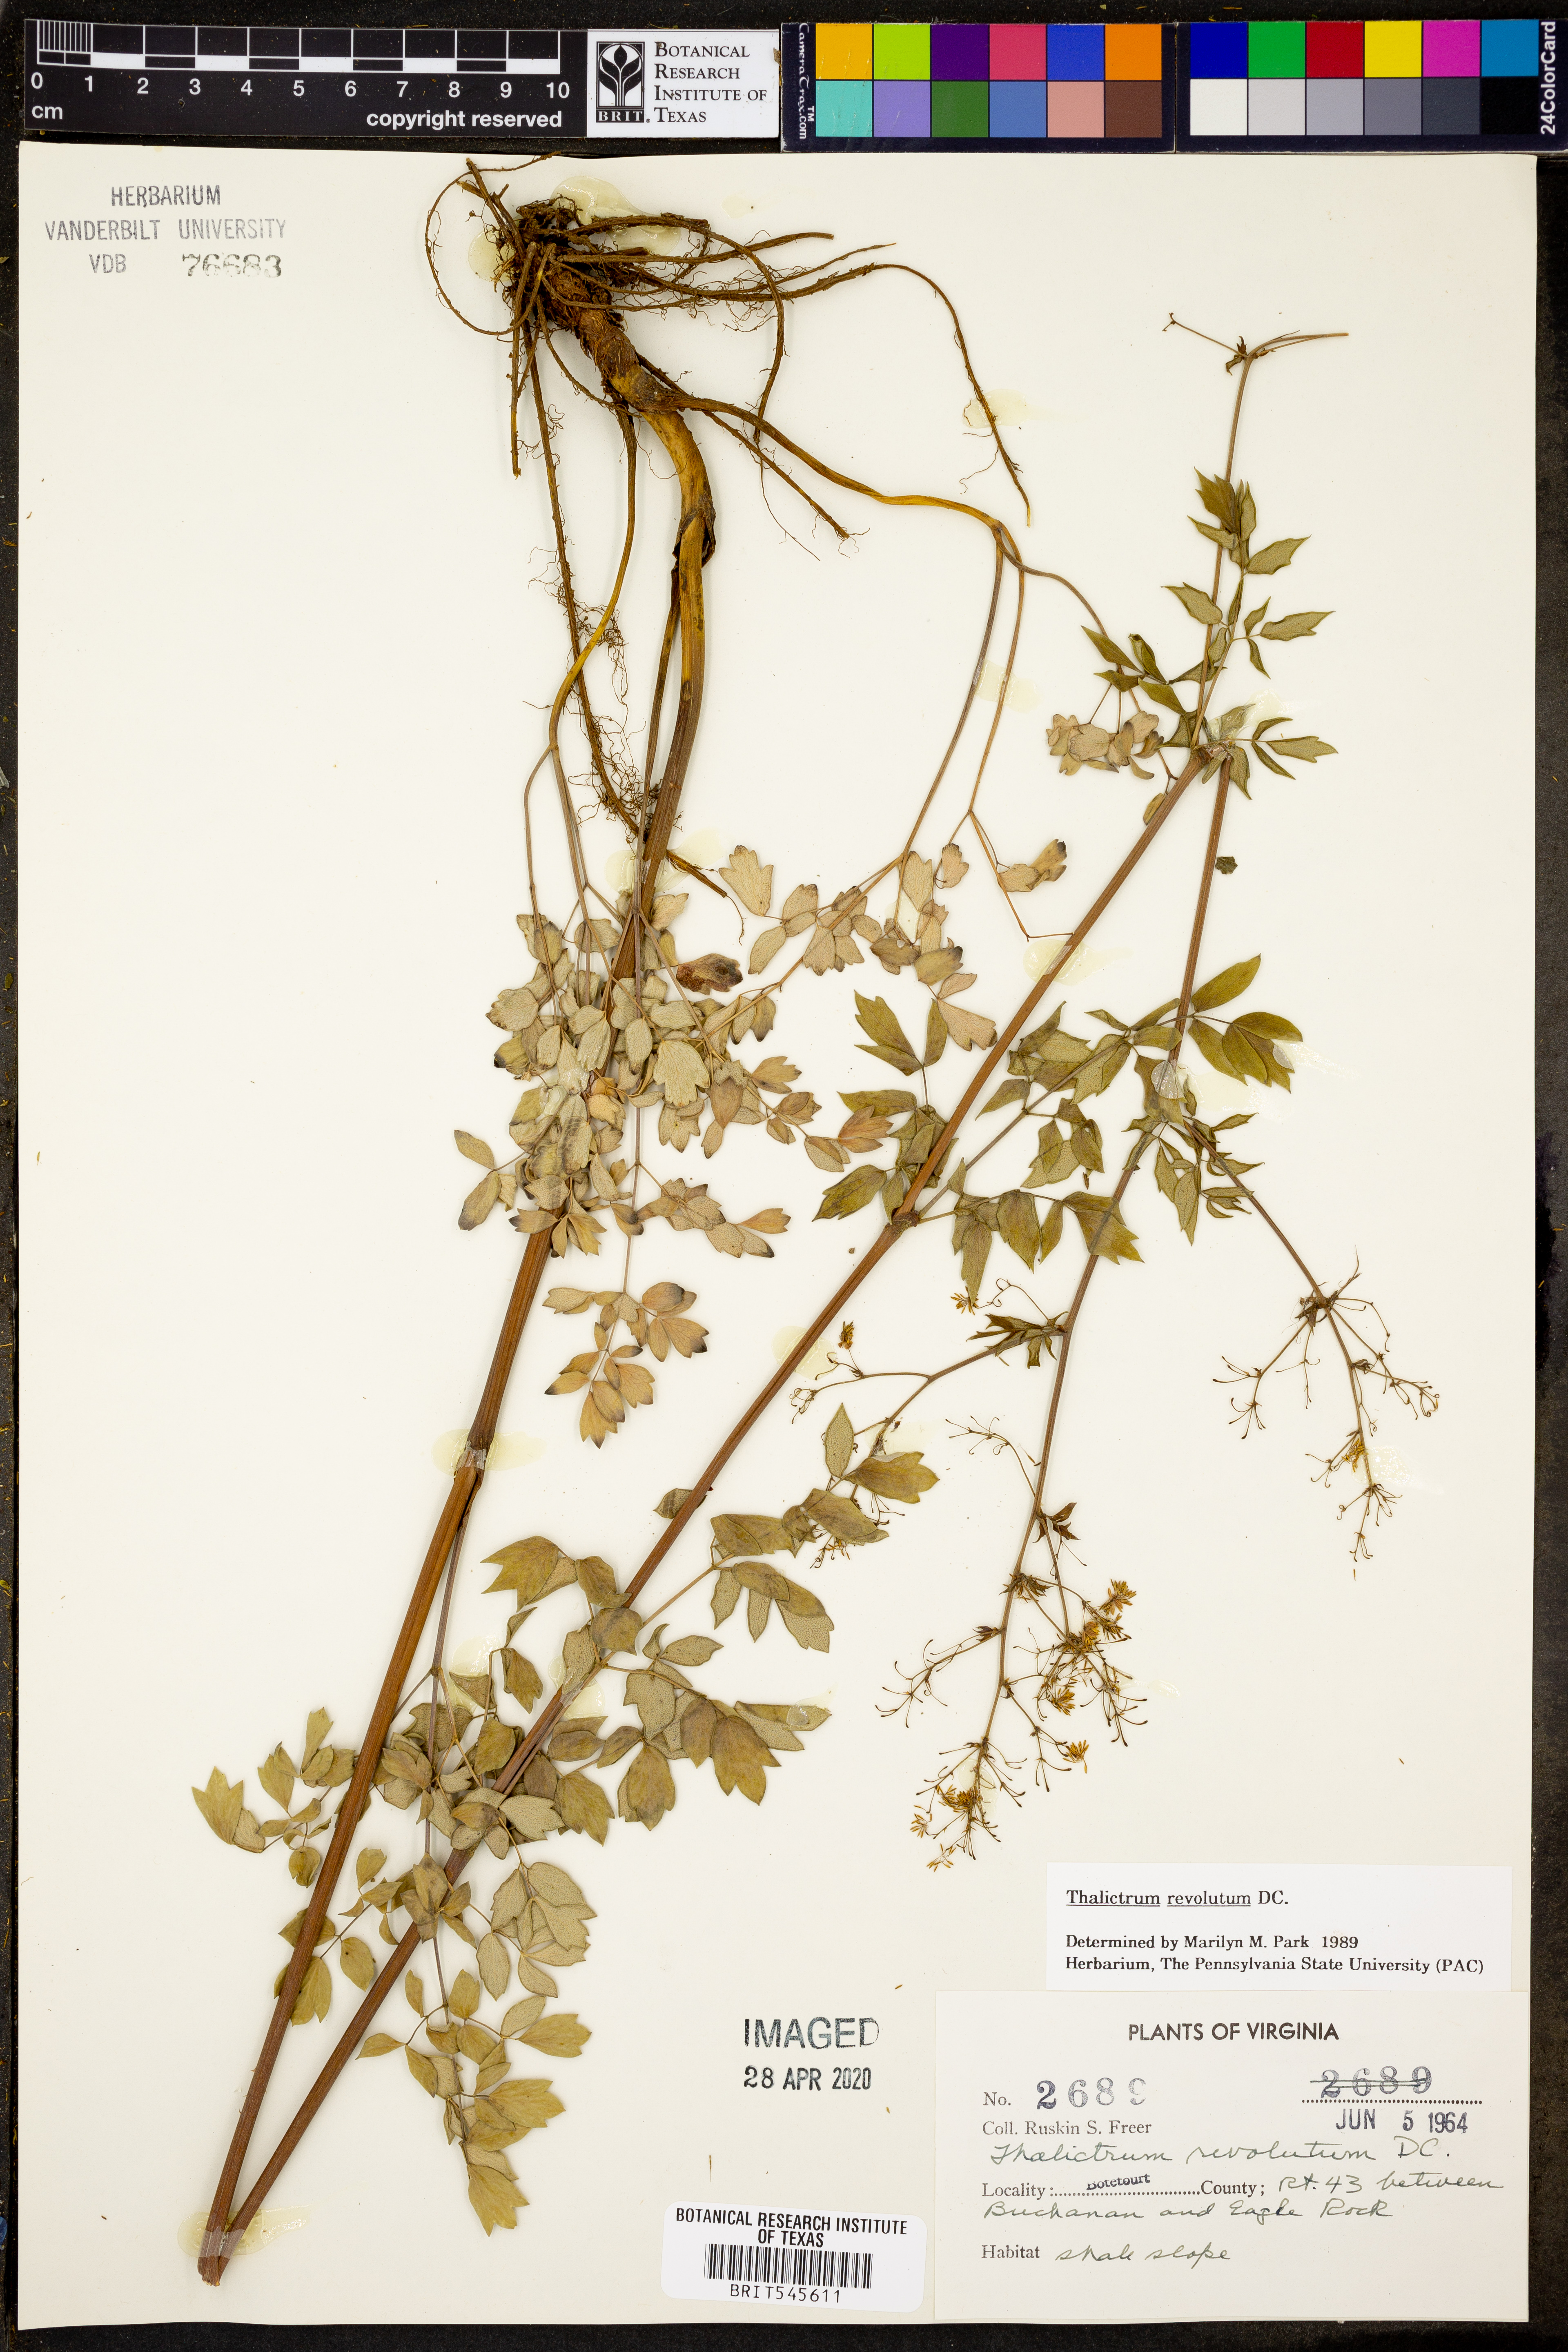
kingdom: Plantae
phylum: Tracheophyta
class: Magnoliopsida
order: Ranunculales
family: Ranunculaceae
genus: Thalictrum
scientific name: Thalictrum revolutum
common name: Waxy meadow-rue
